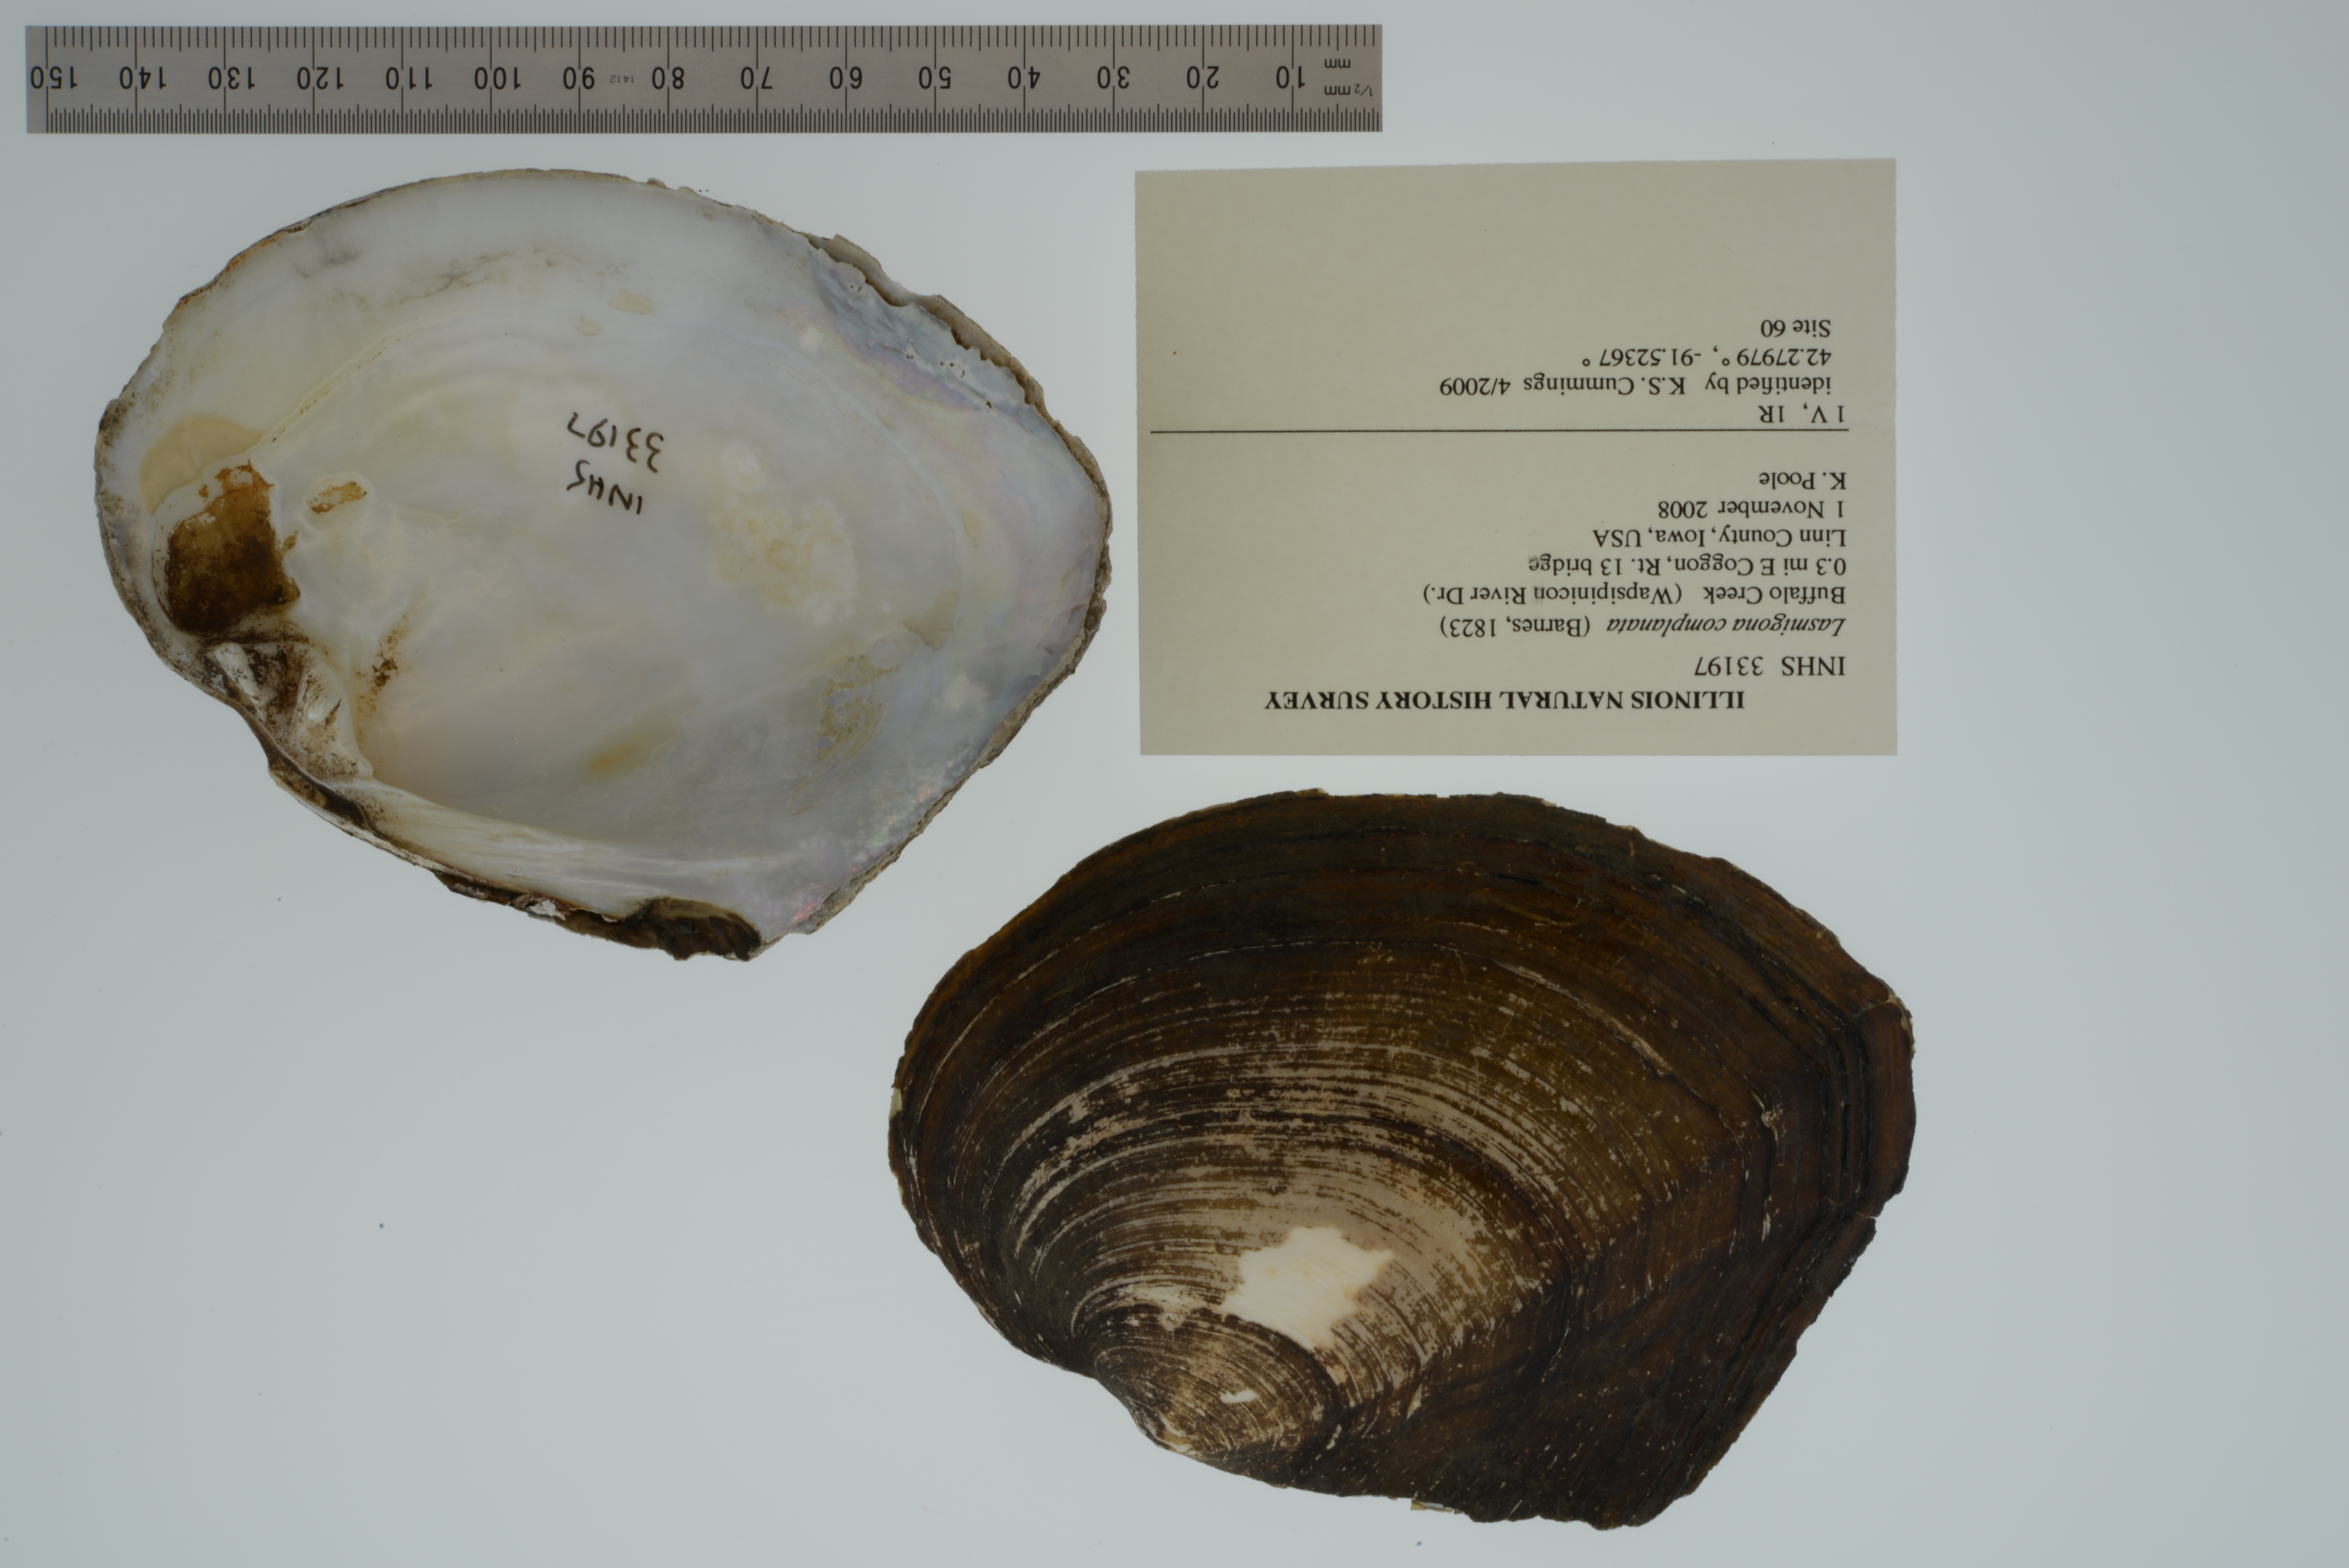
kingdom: Animalia
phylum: Mollusca
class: Bivalvia
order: Unionida
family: Unionidae
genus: Lasmigona
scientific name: Lasmigona complanata
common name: White heelsplitter
